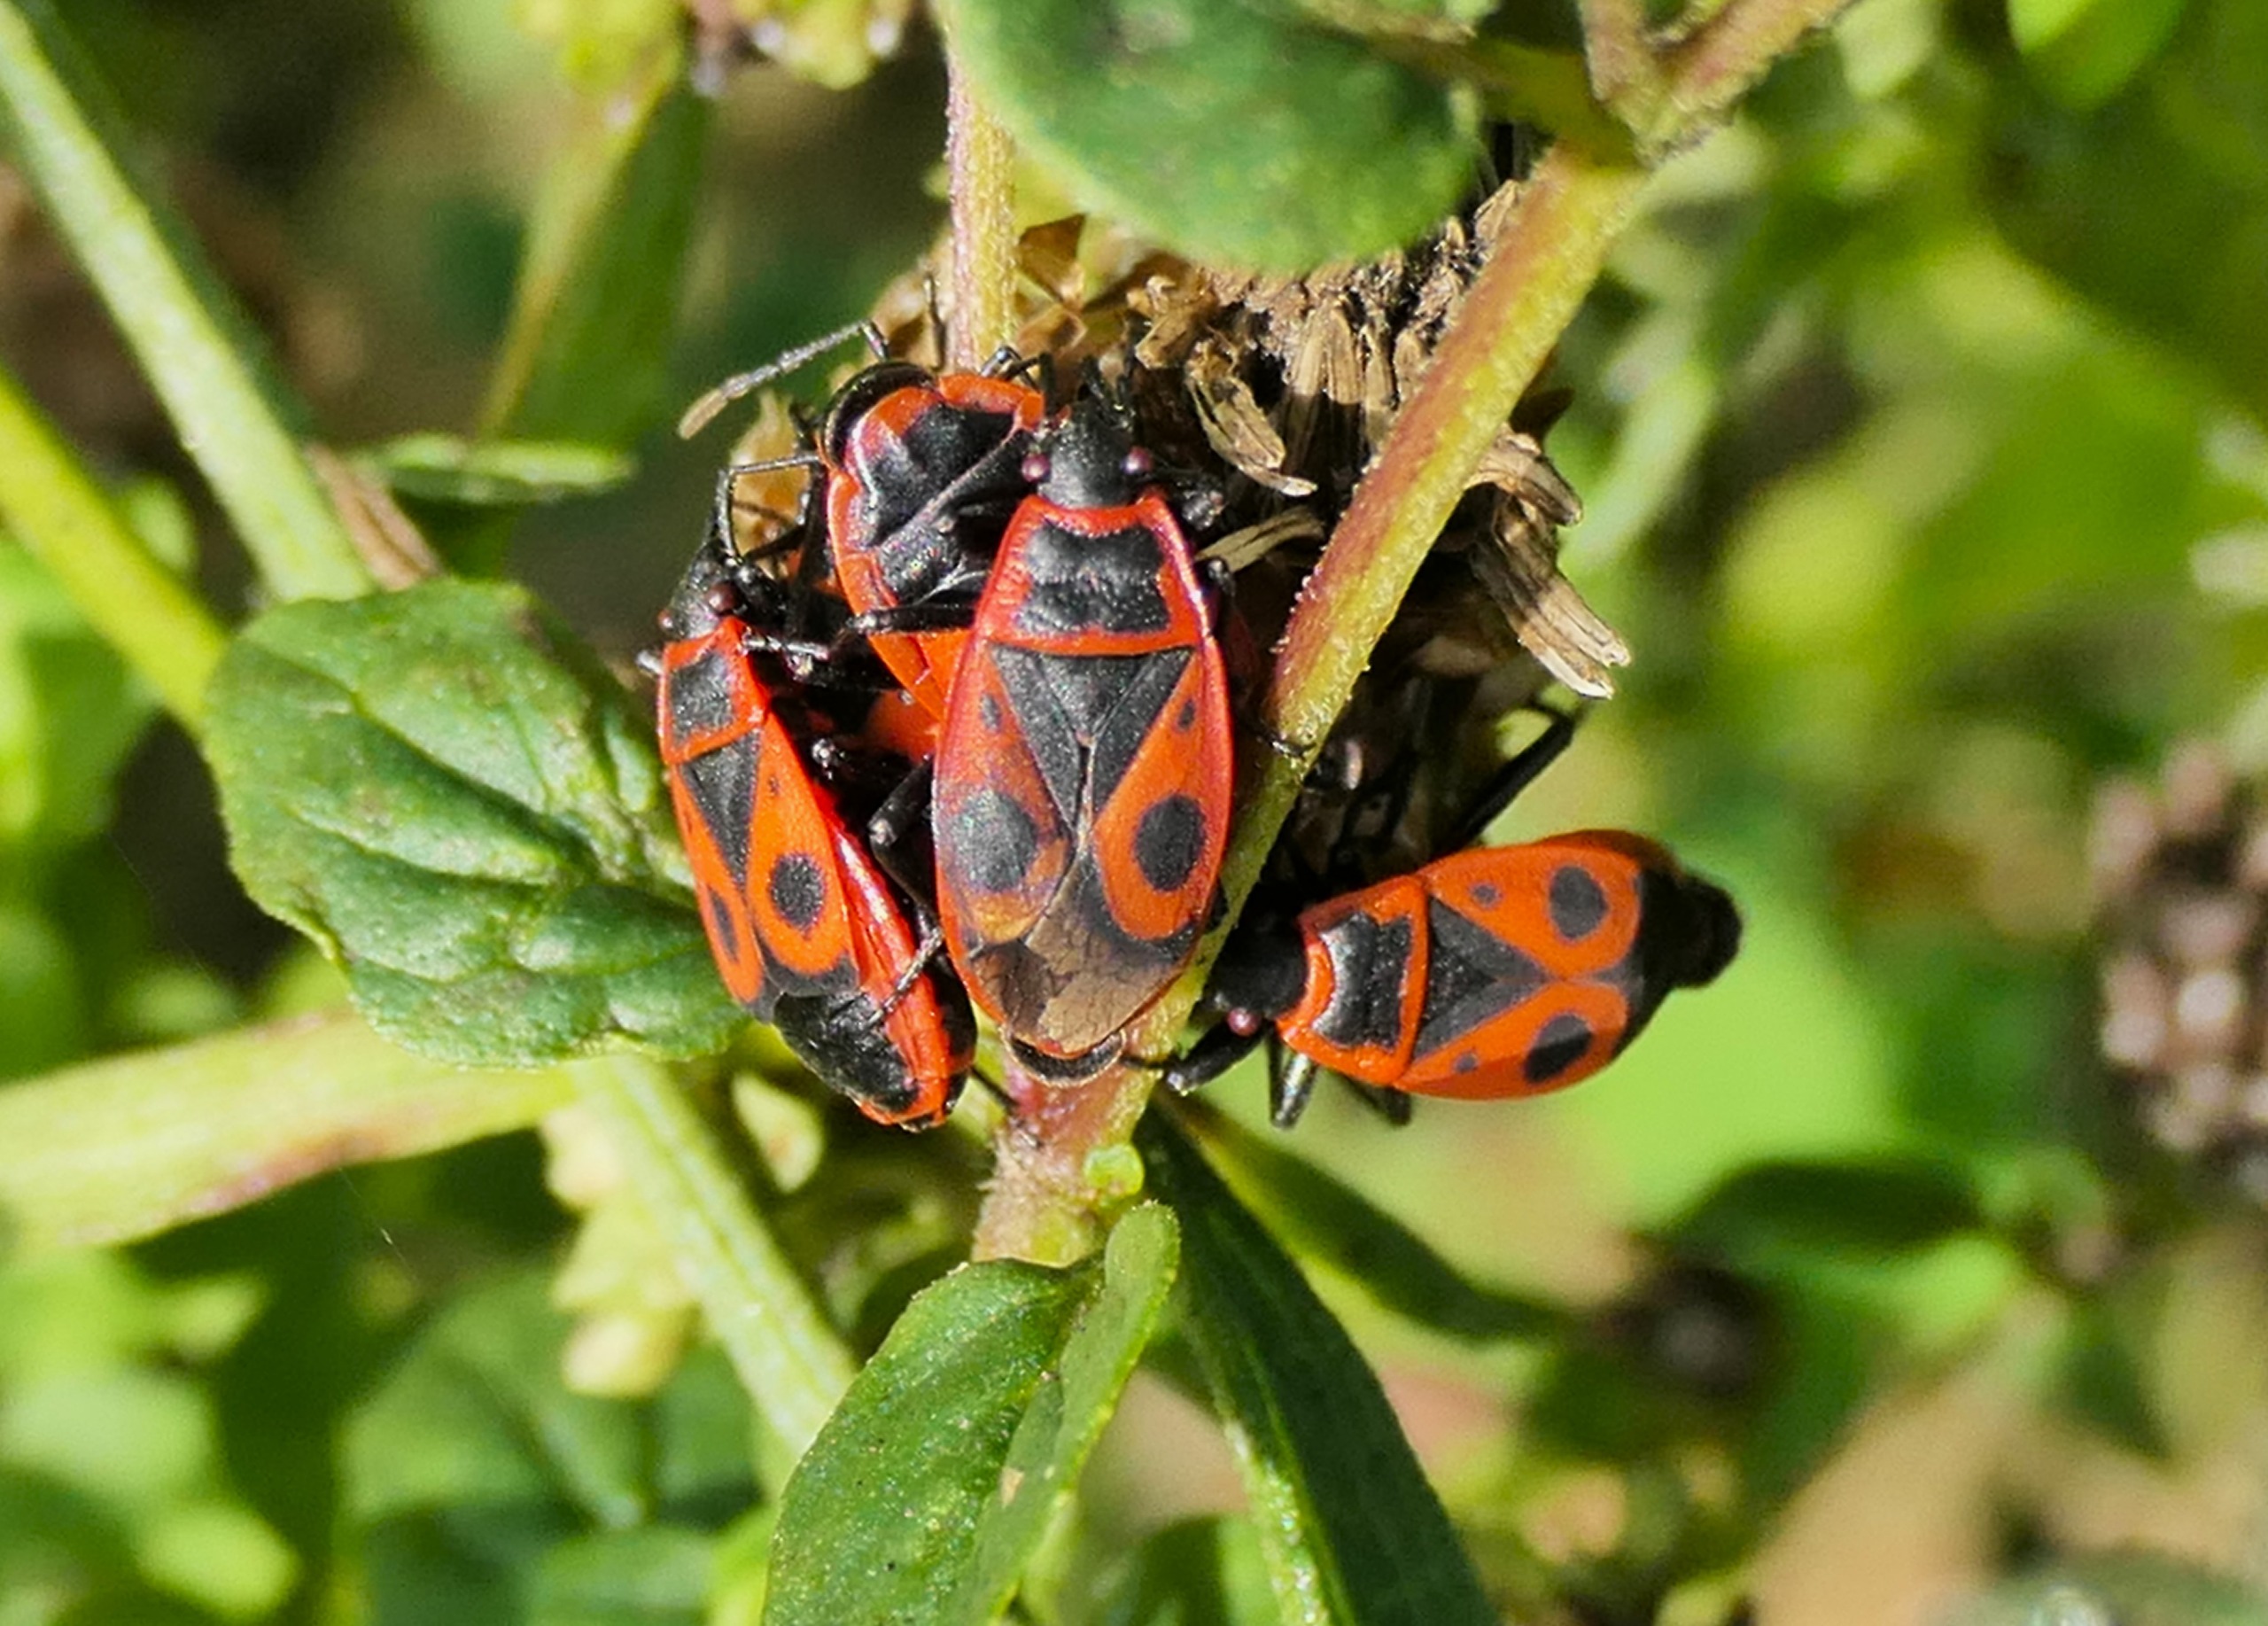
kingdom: Animalia
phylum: Arthropoda
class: Insecta
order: Hemiptera
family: Pyrrhocoridae
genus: Pyrrhocoris
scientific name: Pyrrhocoris apterus
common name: Ildtæge
